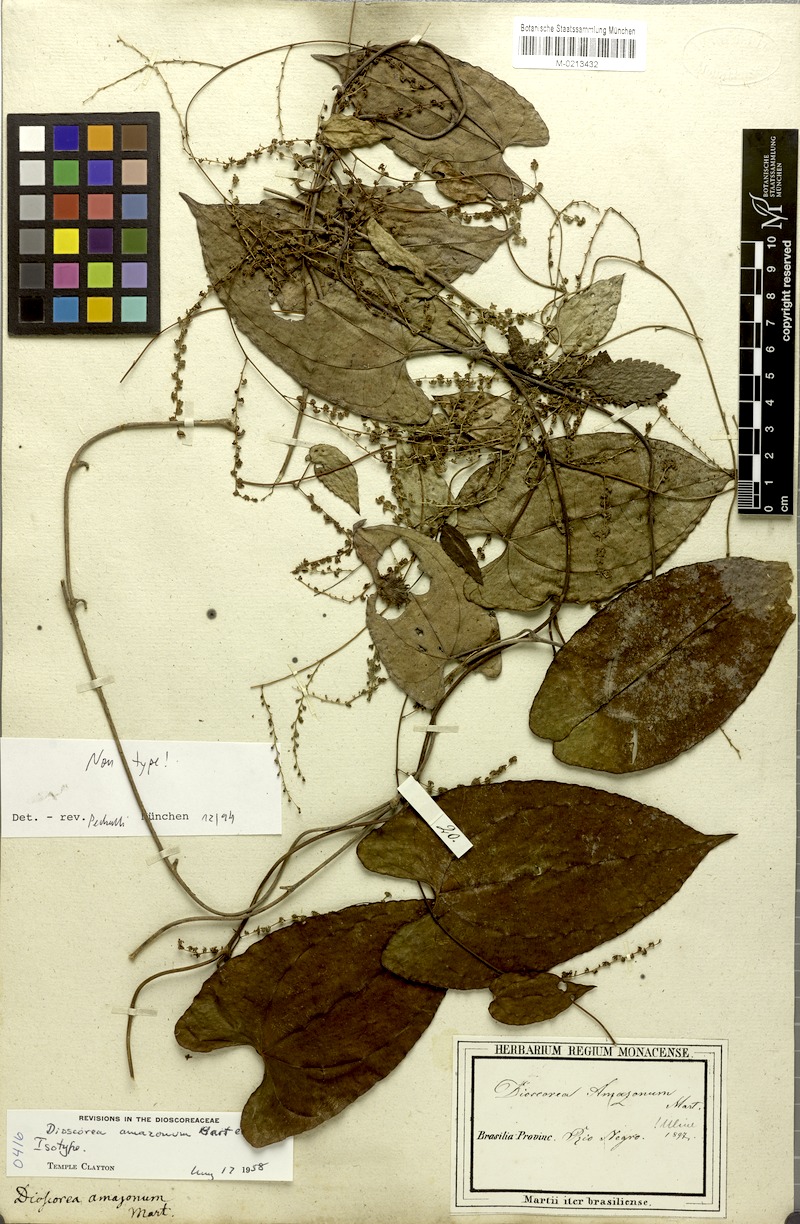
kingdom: Plantae
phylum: Tracheophyta
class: Liliopsida
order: Dioscoreales
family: Dioscoreaceae
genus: Dioscorea
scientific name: Dioscorea amazonum
